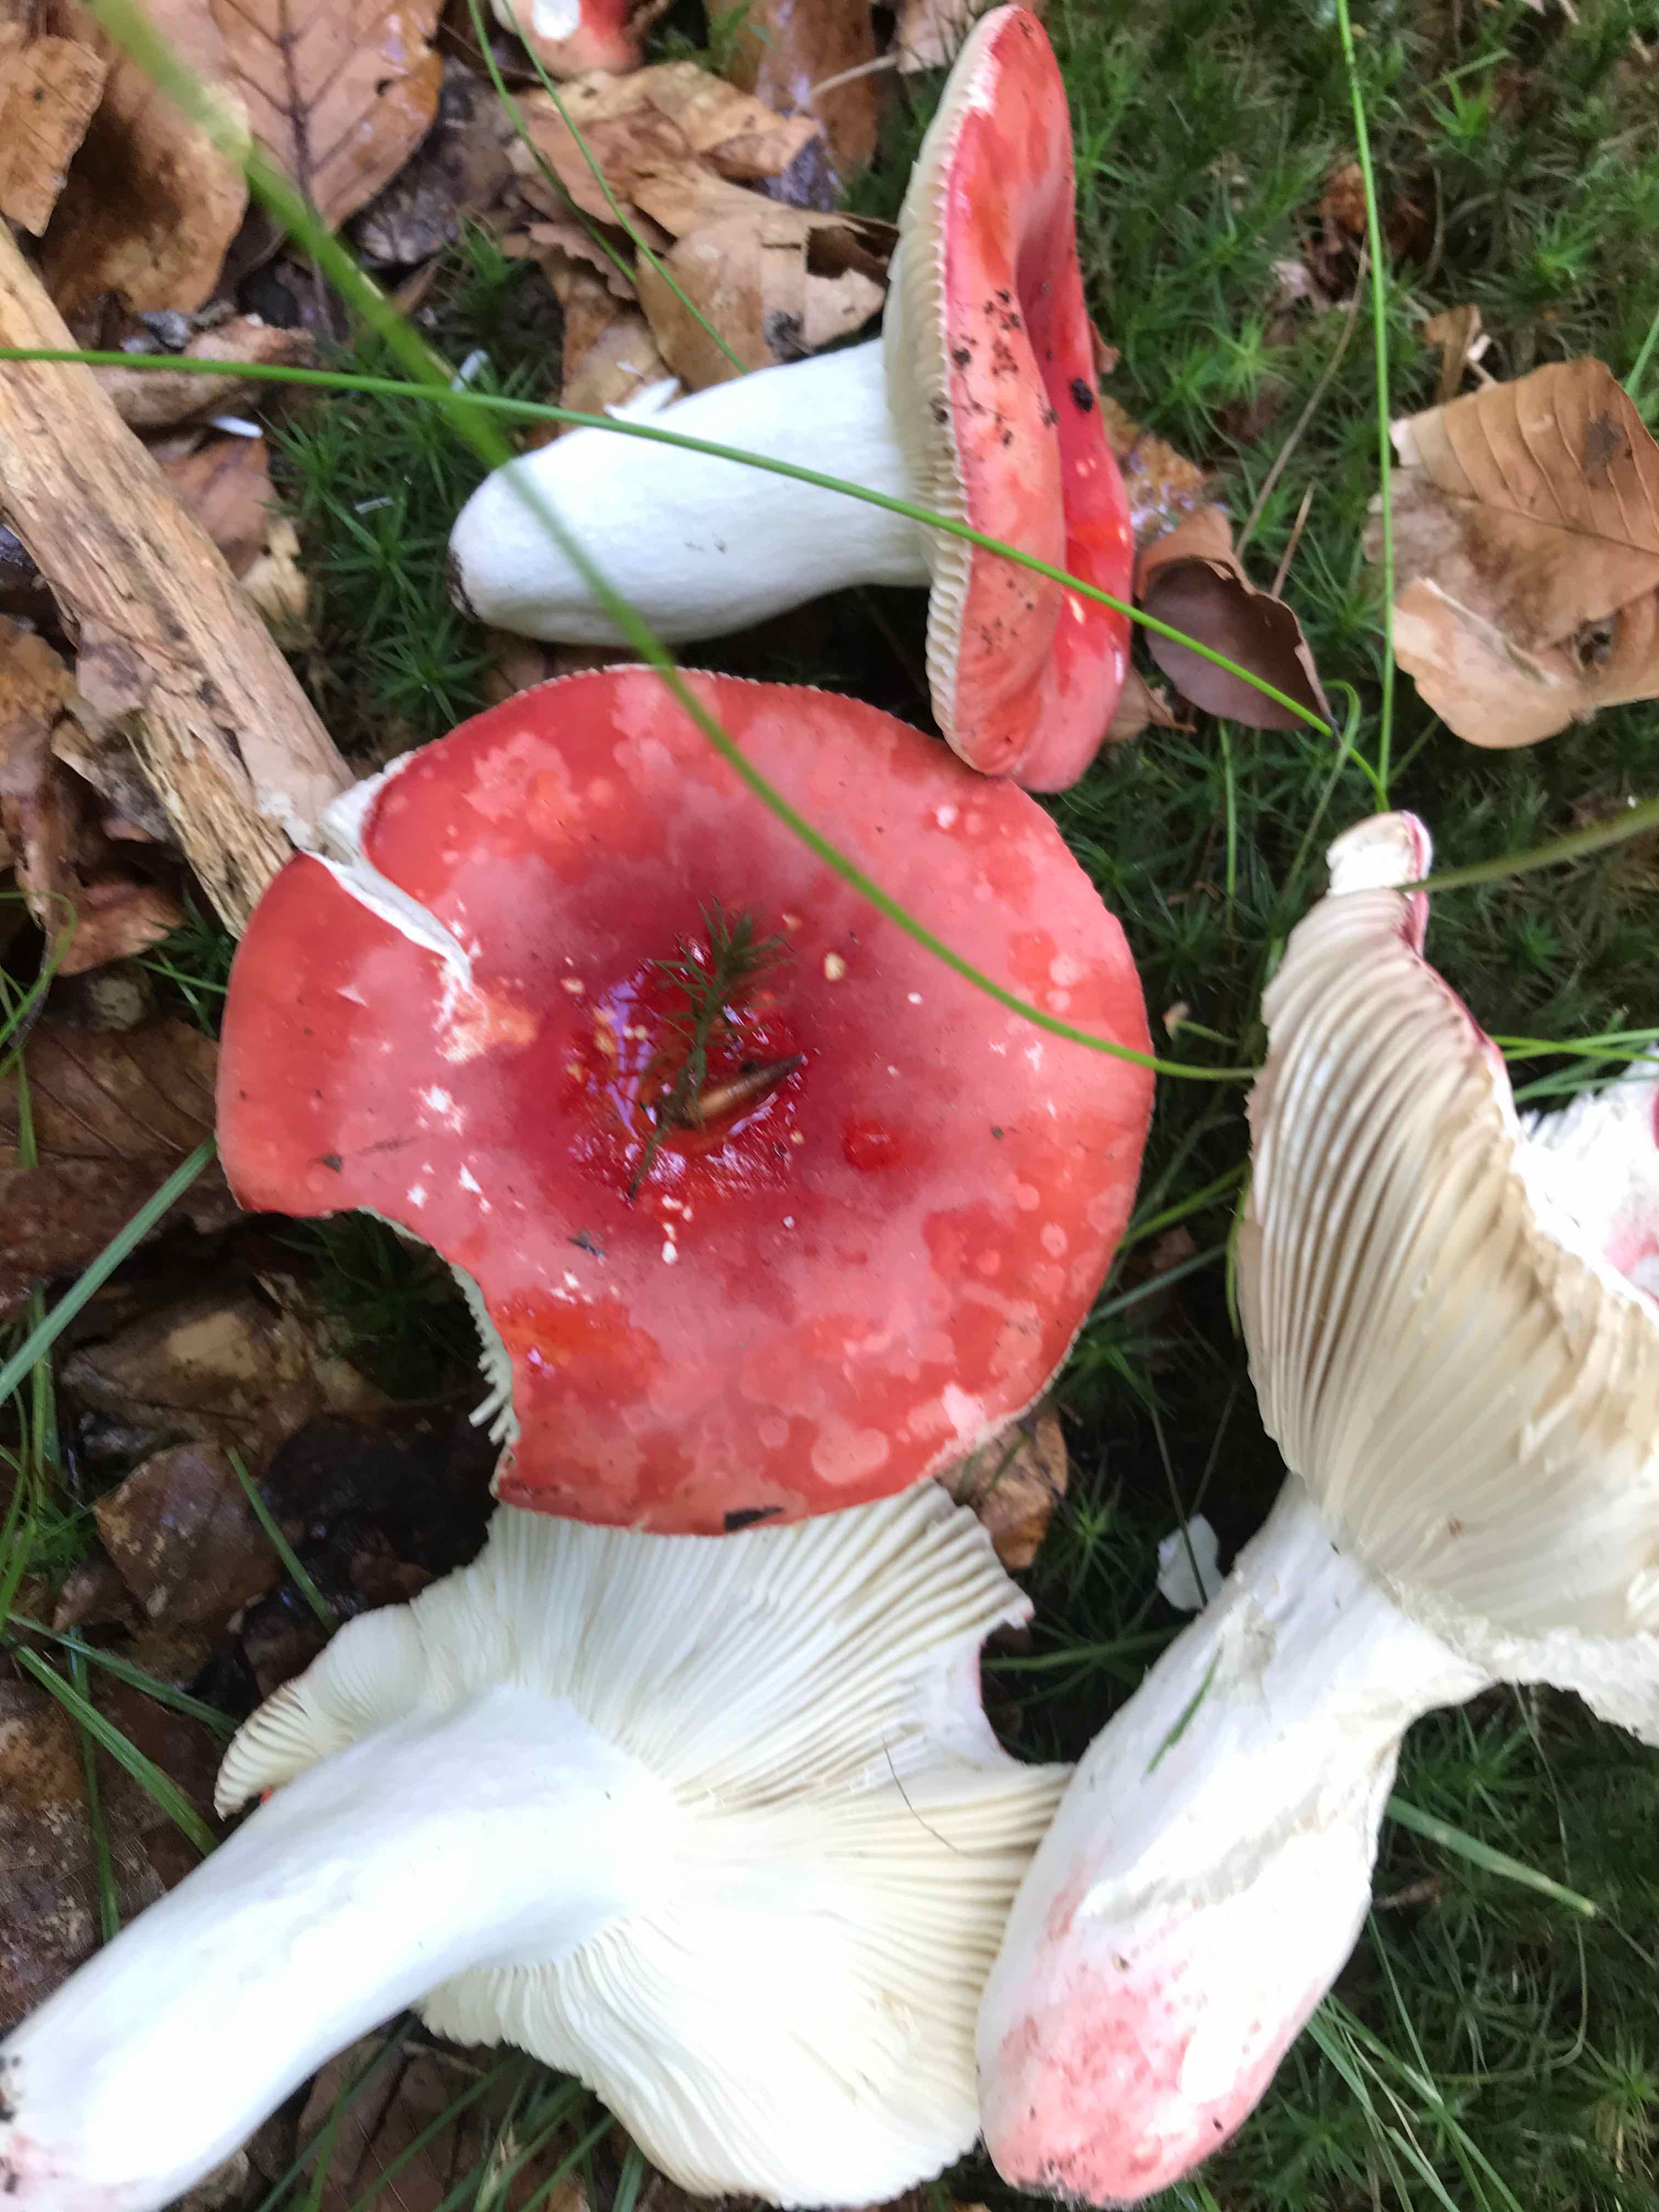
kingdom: Fungi
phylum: Basidiomycota
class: Agaricomycetes
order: Russulales
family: Russulaceae
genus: Russula
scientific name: Russula rosea
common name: fastkødet skørhat
